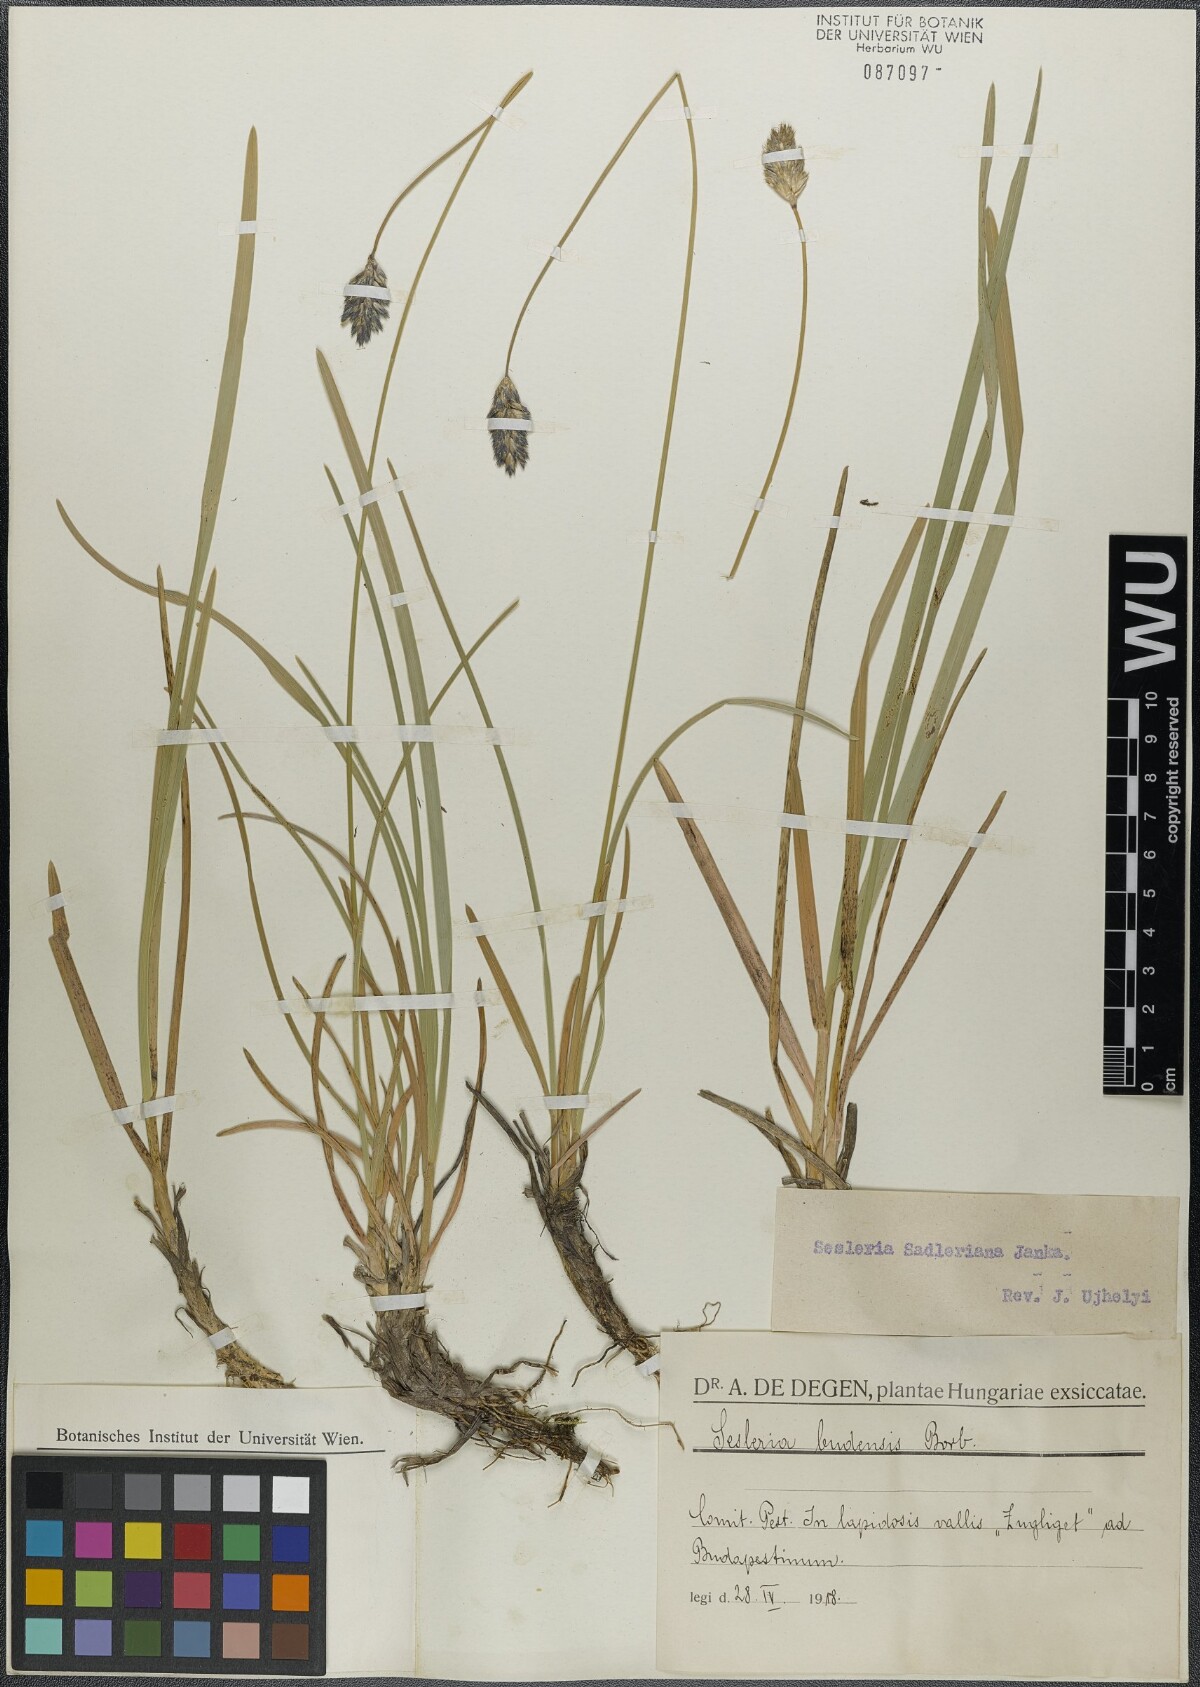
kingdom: Plantae
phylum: Tracheophyta
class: Liliopsida
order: Poales
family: Poaceae
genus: Sesleria
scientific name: Sesleria sadleriana
